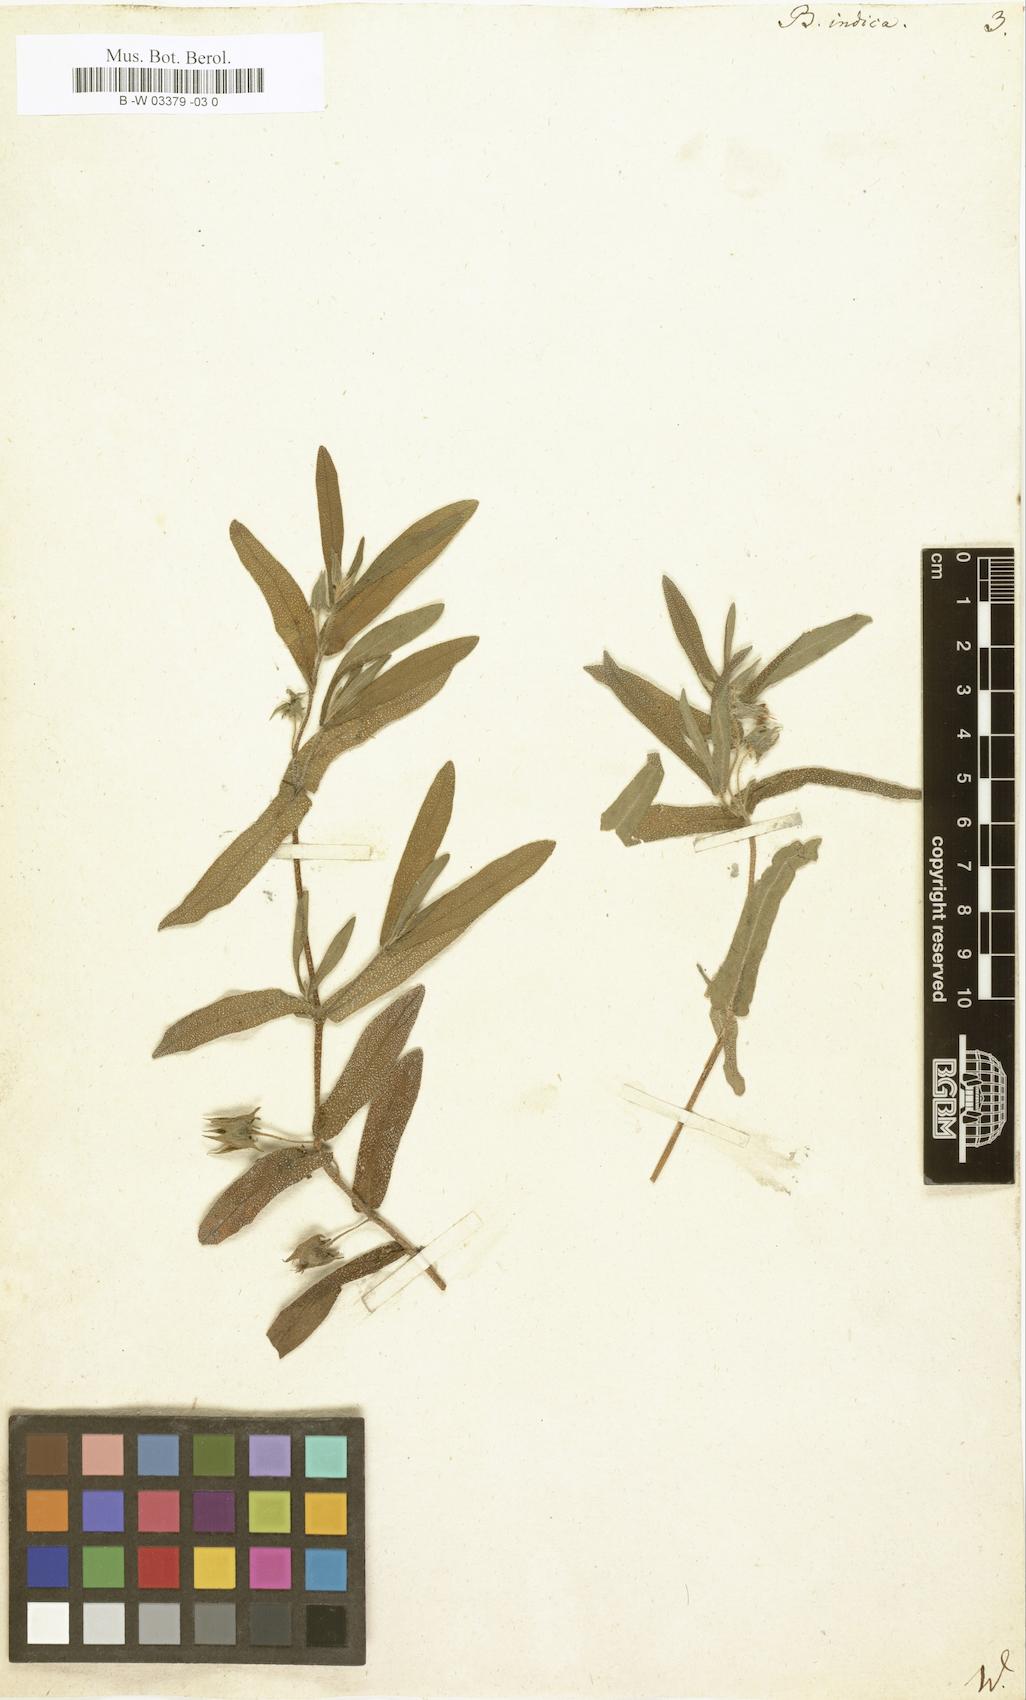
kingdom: Plantae
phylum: Tracheophyta
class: Magnoliopsida
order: Boraginales
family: Boraginaceae
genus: Trichodesma
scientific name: Trichodesma indicum
